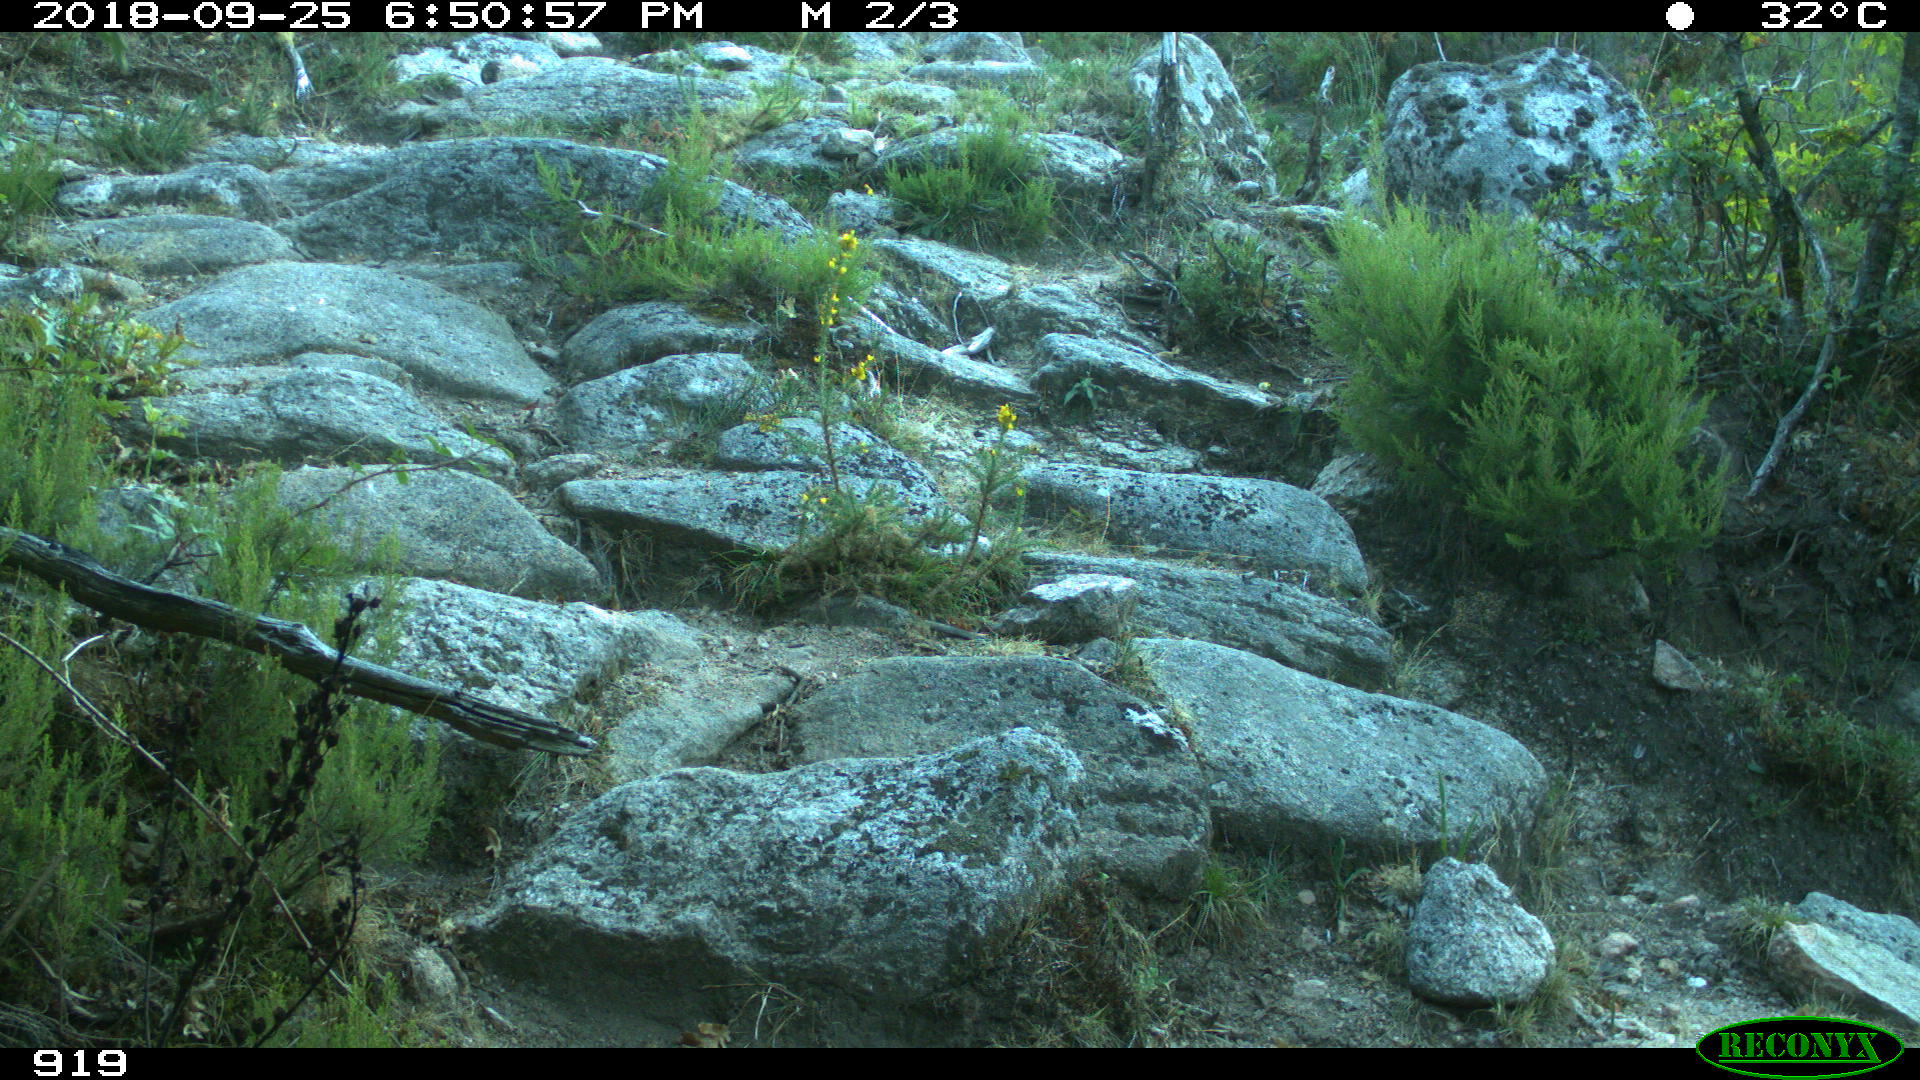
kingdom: Animalia
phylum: Chordata
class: Mammalia
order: Artiodactyla
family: Bovidae
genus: Bos
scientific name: Bos taurus
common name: Domesticated cattle
